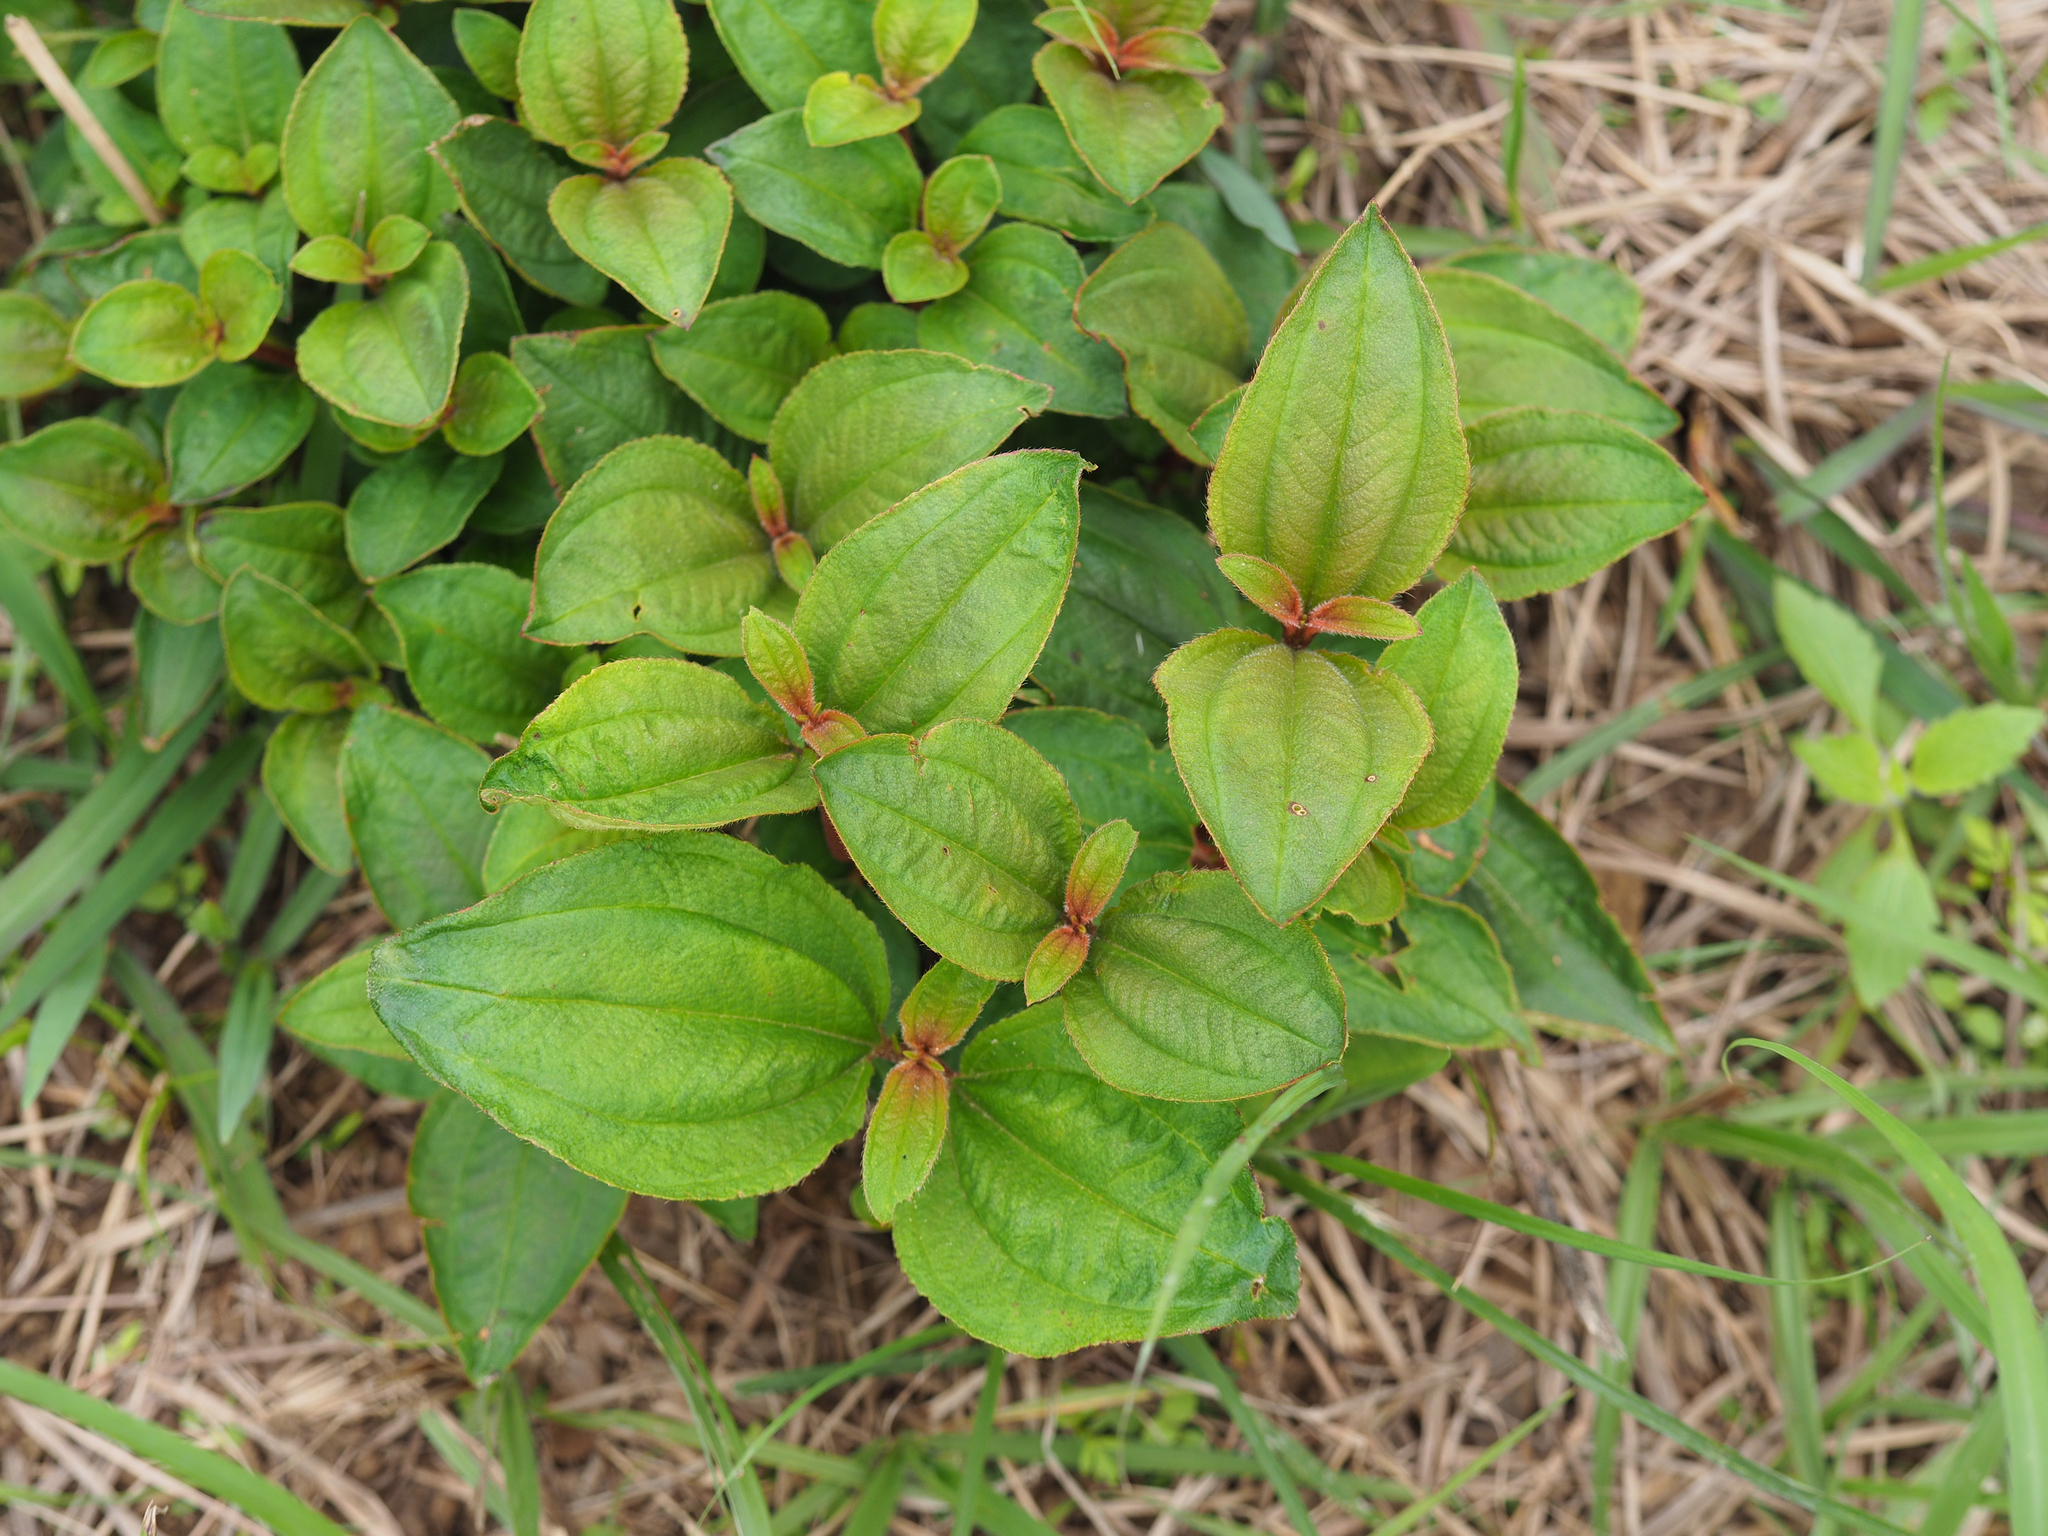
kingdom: Plantae
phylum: Tracheophyta
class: Magnoliopsida
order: Myrtales
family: Melastomataceae
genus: Melastoma
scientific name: Melastoma malabathricum
